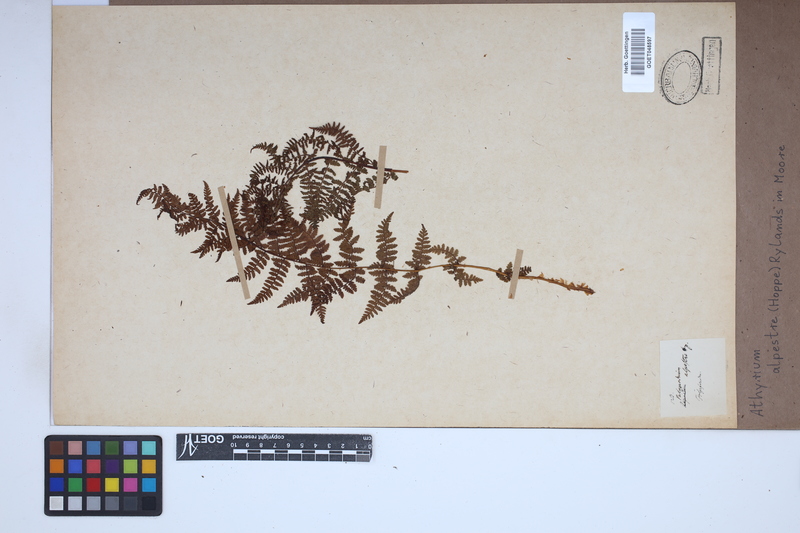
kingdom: Plantae
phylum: Tracheophyta
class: Polypodiopsida
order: Polypodiales
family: Athyriaceae
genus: Pseudathyrium
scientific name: Pseudathyrium alpestre
